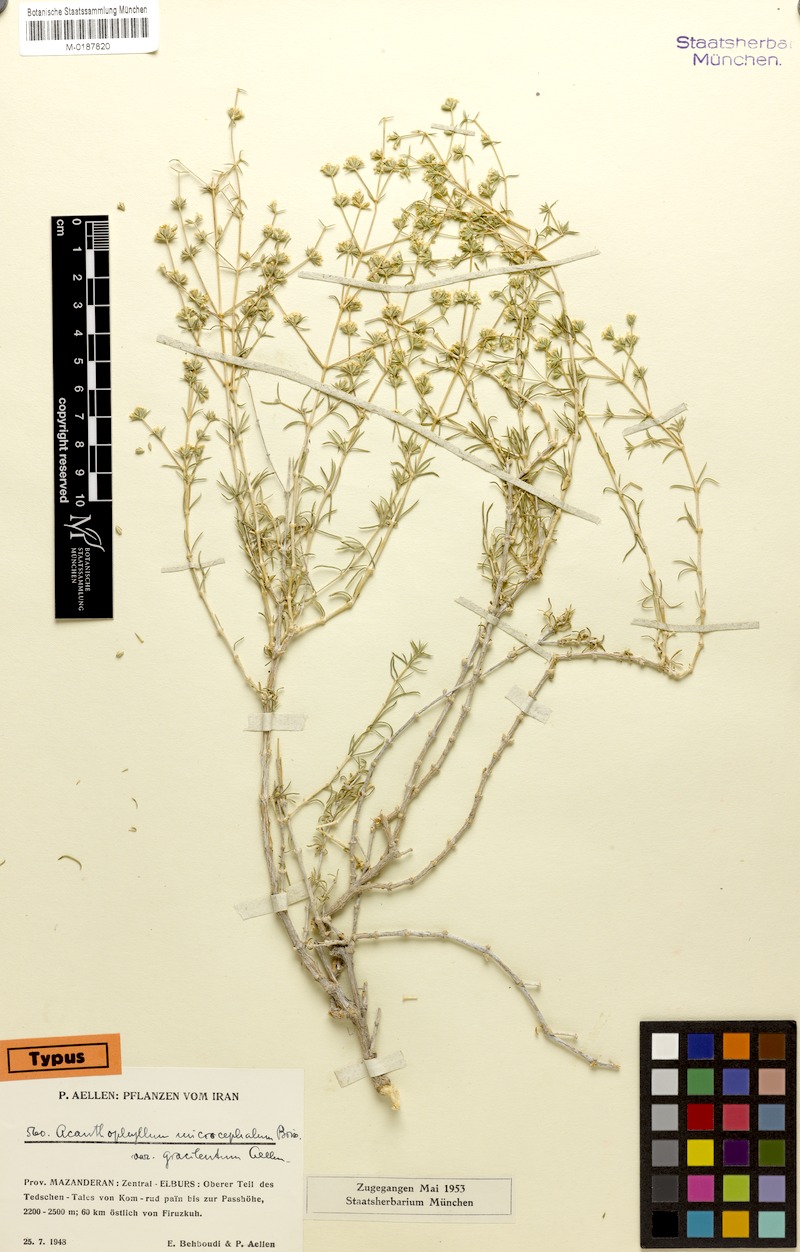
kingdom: Plantae
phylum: Tracheophyta
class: Magnoliopsida
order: Caryophyllales
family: Caryophyllaceae
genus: Acanthophyllum
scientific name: Acanthophyllum microcephalum
